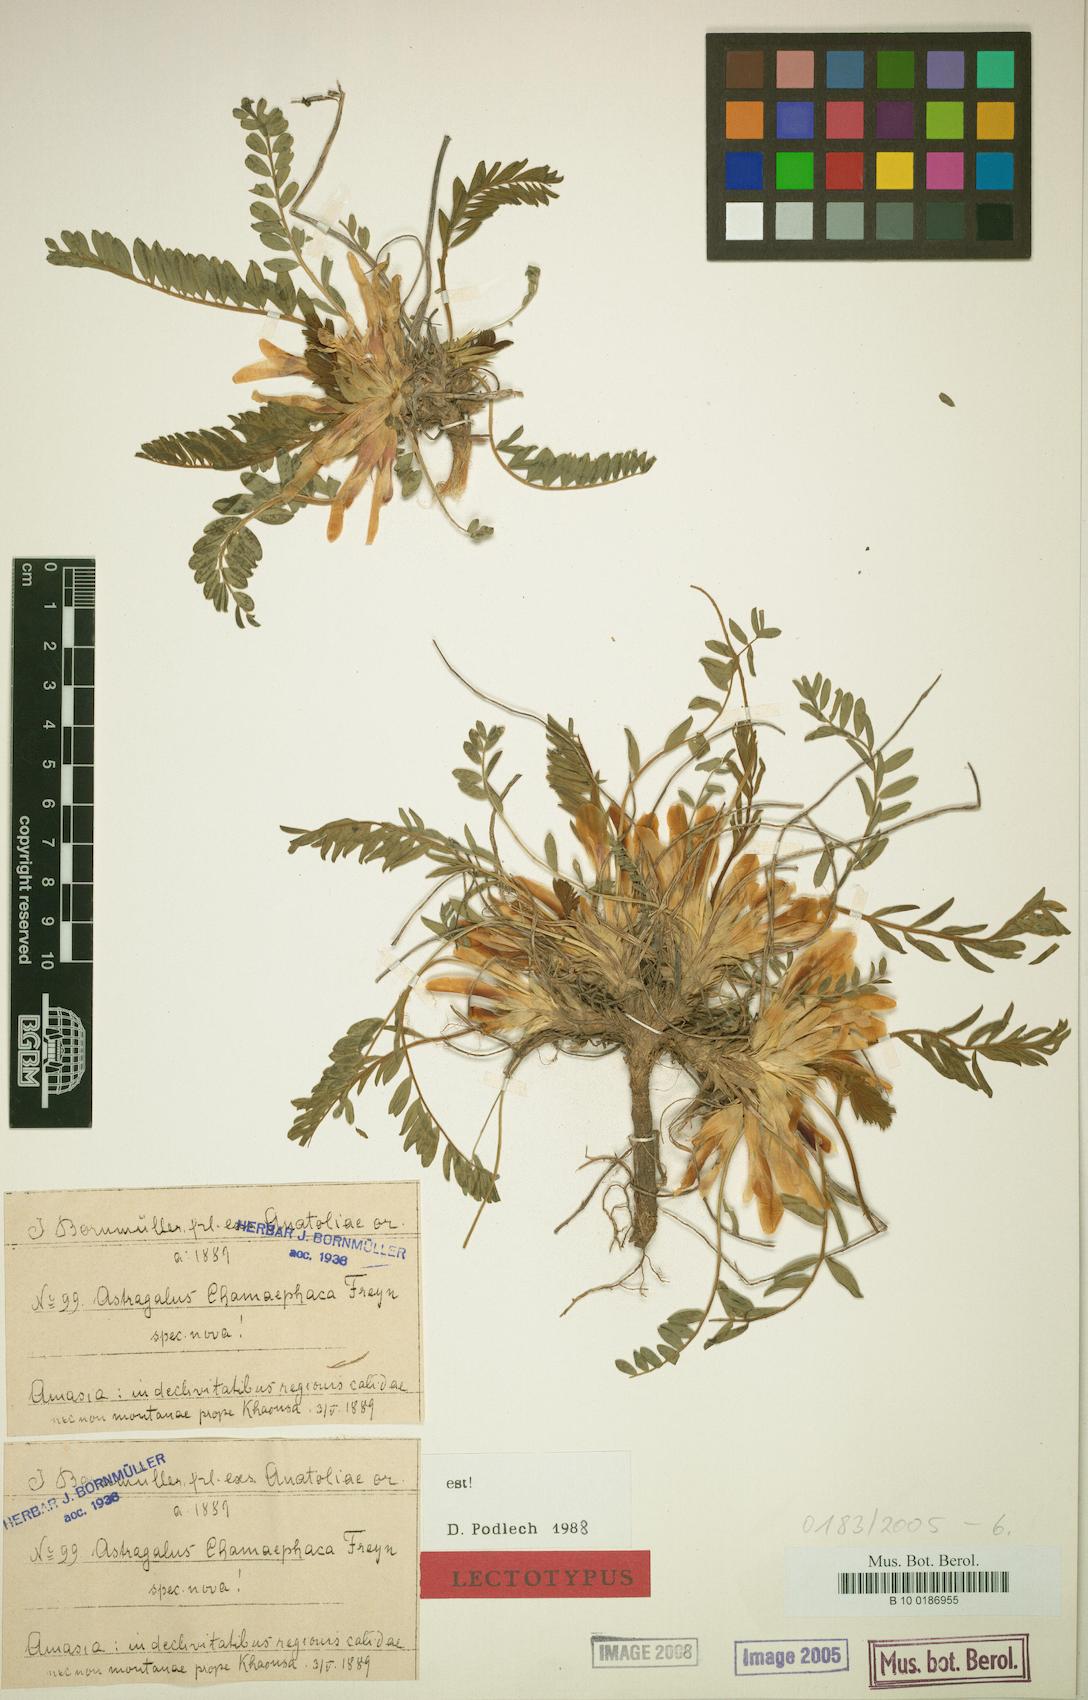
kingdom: Plantae
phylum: Tracheophyta
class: Magnoliopsida
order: Fabales
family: Fabaceae
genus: Astragalus
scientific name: Astragalus chamaephaca
